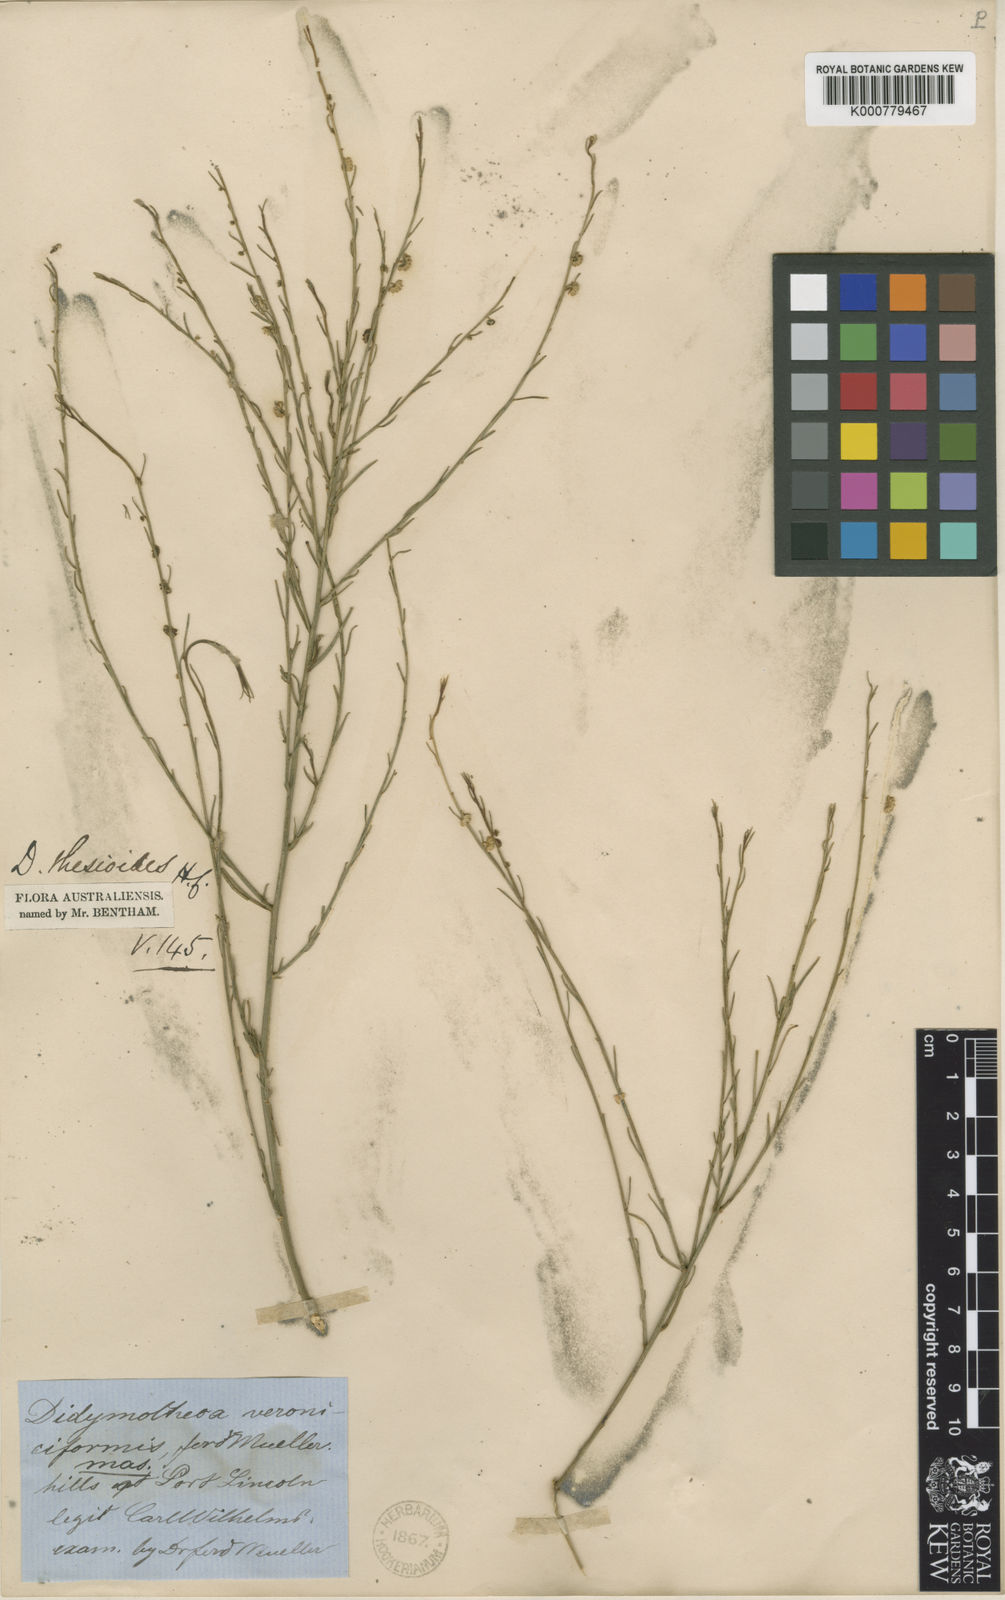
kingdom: Plantae
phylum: Tracheophyta
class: Magnoliopsida
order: Brassicales
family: Gyrostemonaceae
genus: Gyrostemon
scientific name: Gyrostemon thesioides
